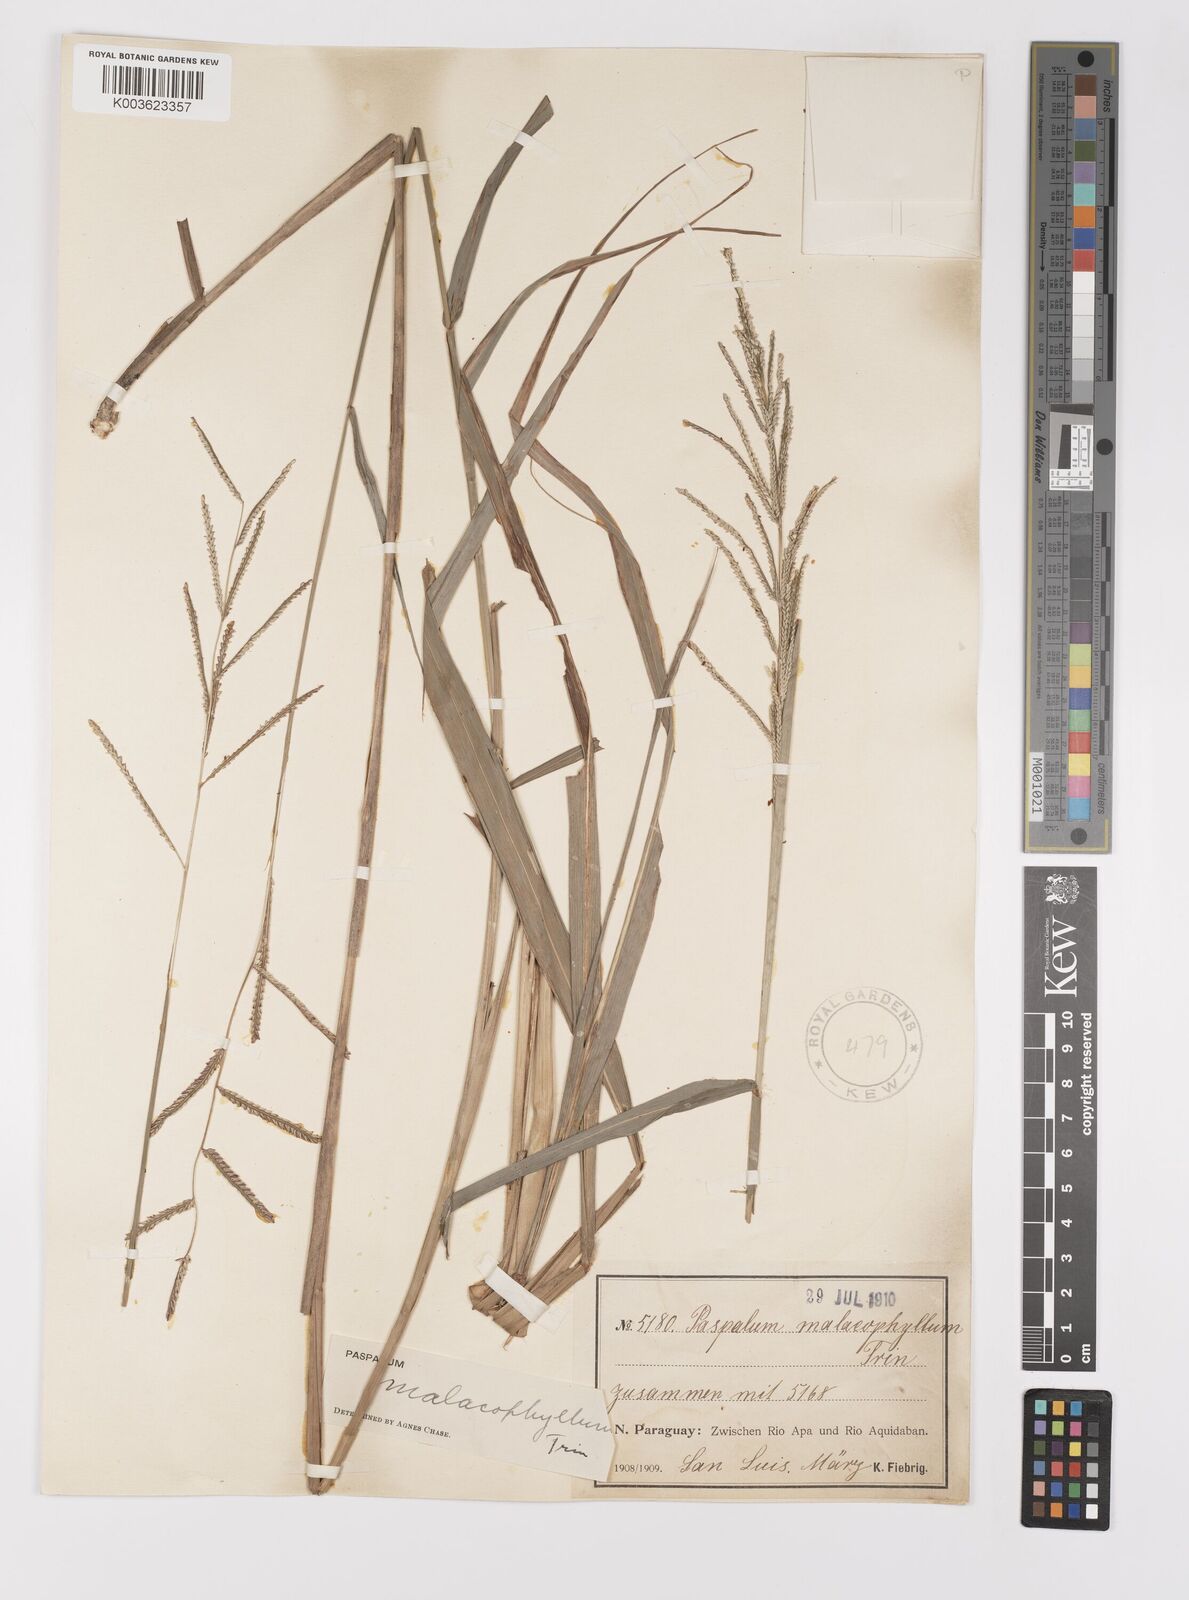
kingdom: Plantae
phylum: Tracheophyta
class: Liliopsida
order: Poales
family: Poaceae
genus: Paspalum
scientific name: Paspalum malacophyllum
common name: Ribbed paspalum
